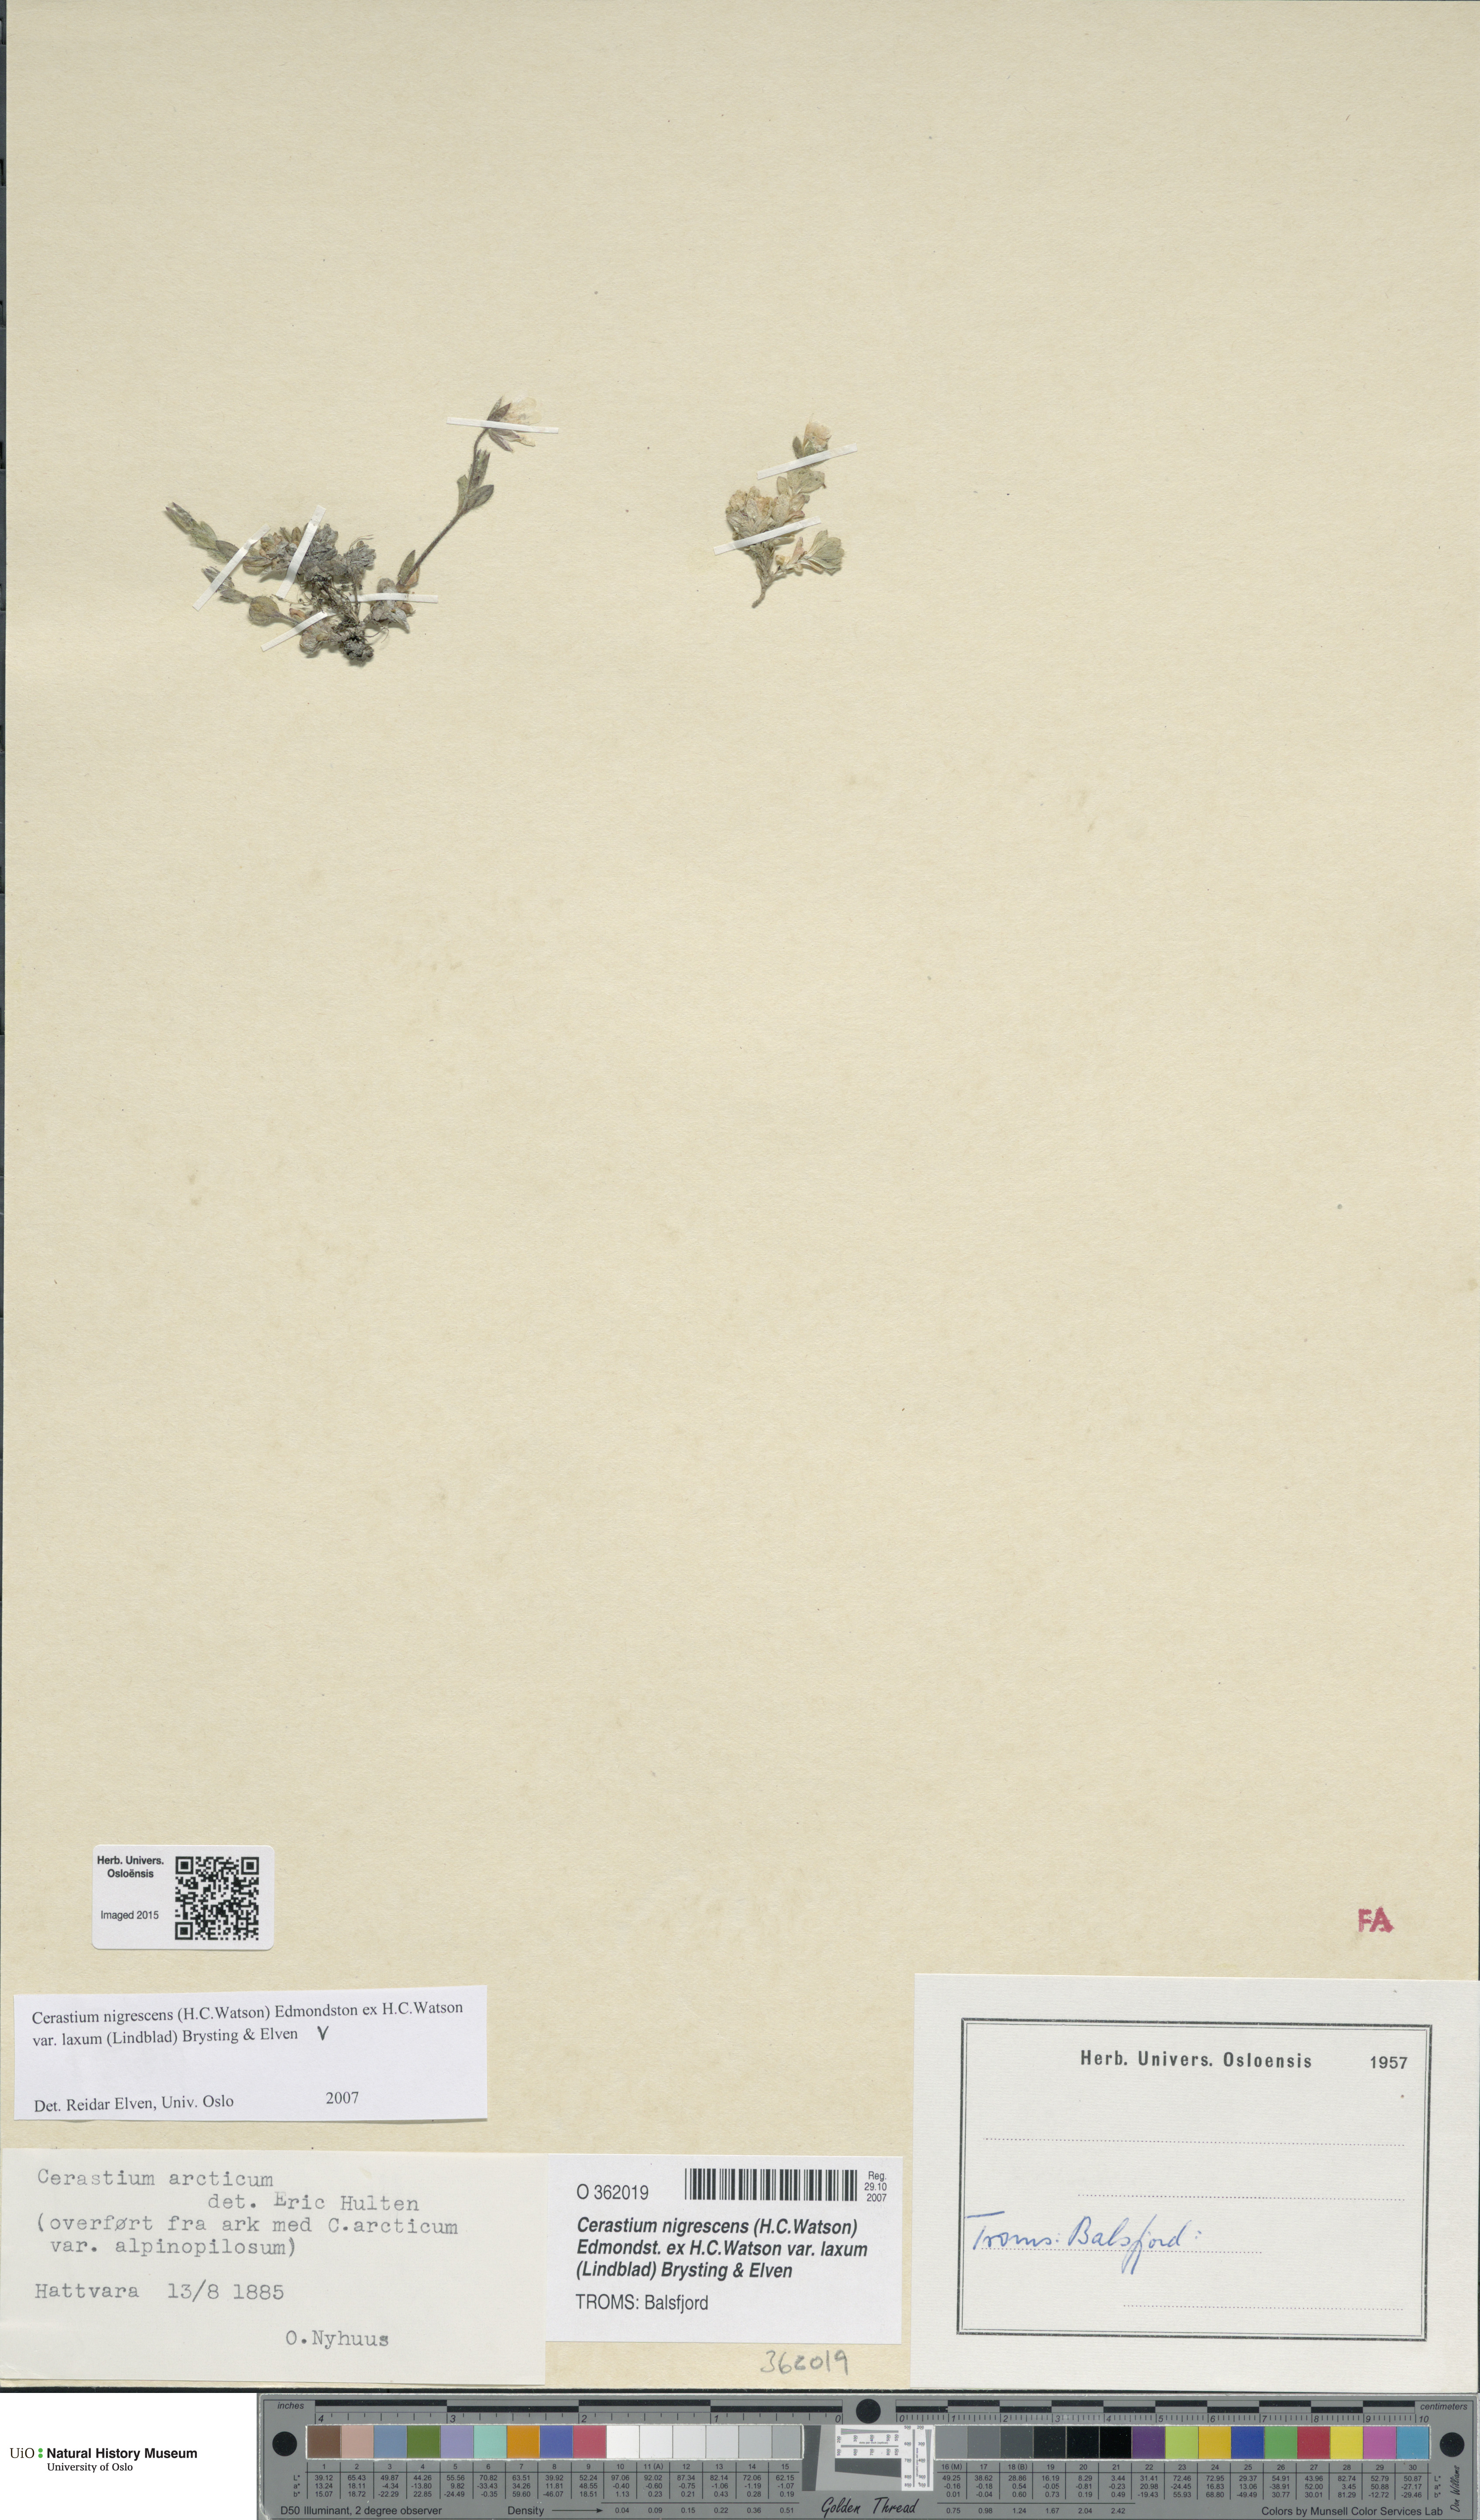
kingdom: Plantae
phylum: Tracheophyta
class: Magnoliopsida
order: Caryophyllales
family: Caryophyllaceae
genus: Cerastium
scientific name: Cerastium nigrescens
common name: Shetland mouse-ear
